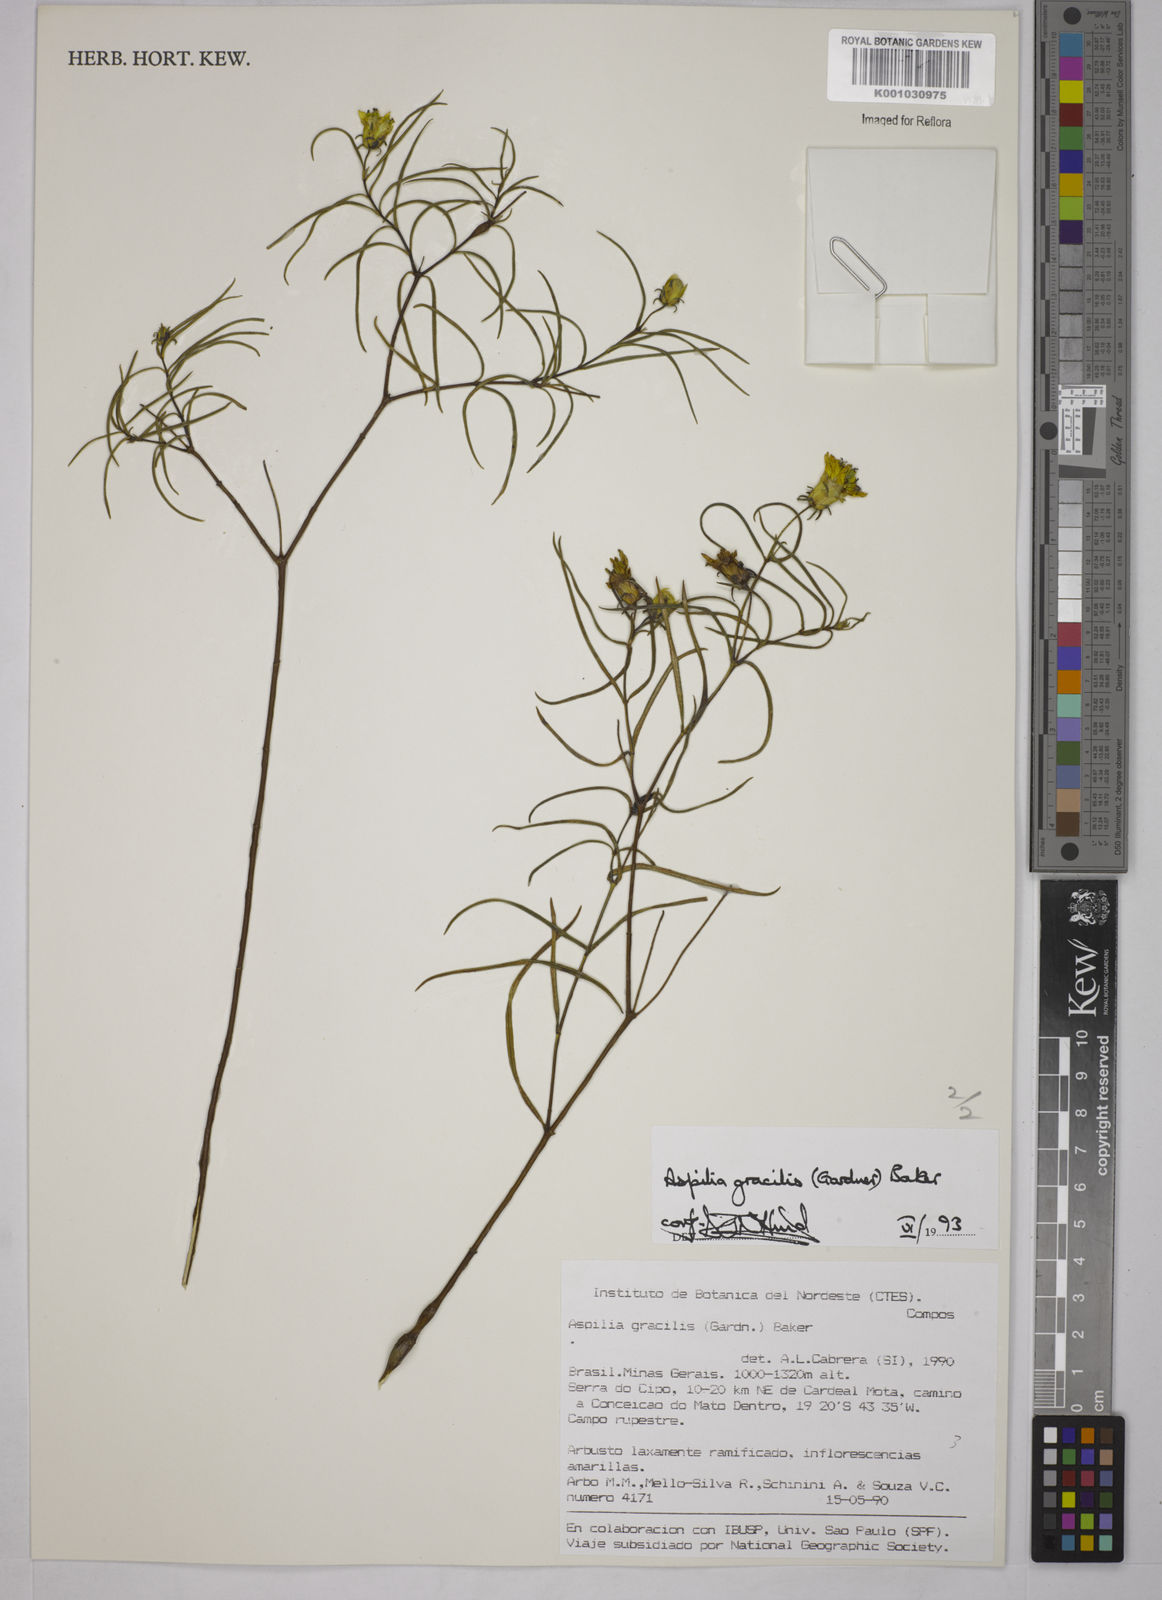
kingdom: Plantae
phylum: Tracheophyta
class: Magnoliopsida
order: Asterales
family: Asteraceae
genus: Wedelia
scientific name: Wedelia floribunda
